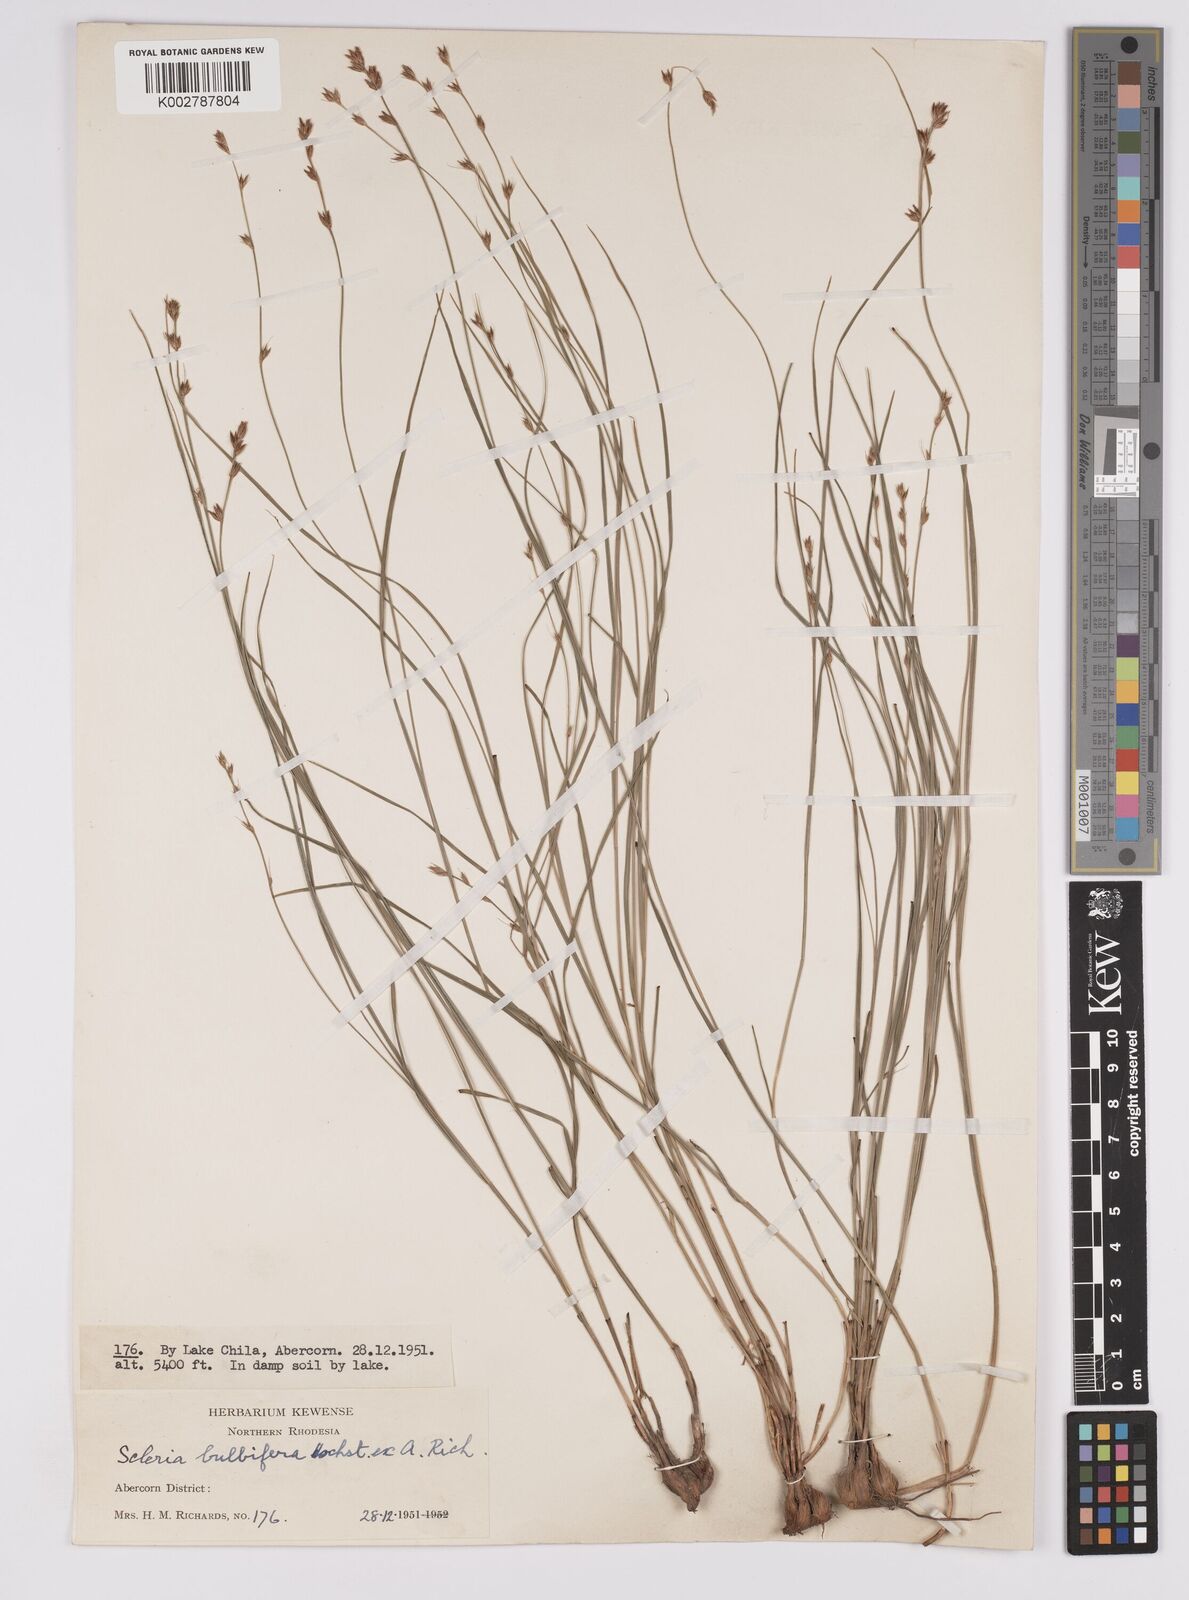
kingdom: Plantae
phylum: Tracheophyta
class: Liliopsida
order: Poales
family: Cyperaceae
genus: Scleria
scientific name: Scleria bulbifera
